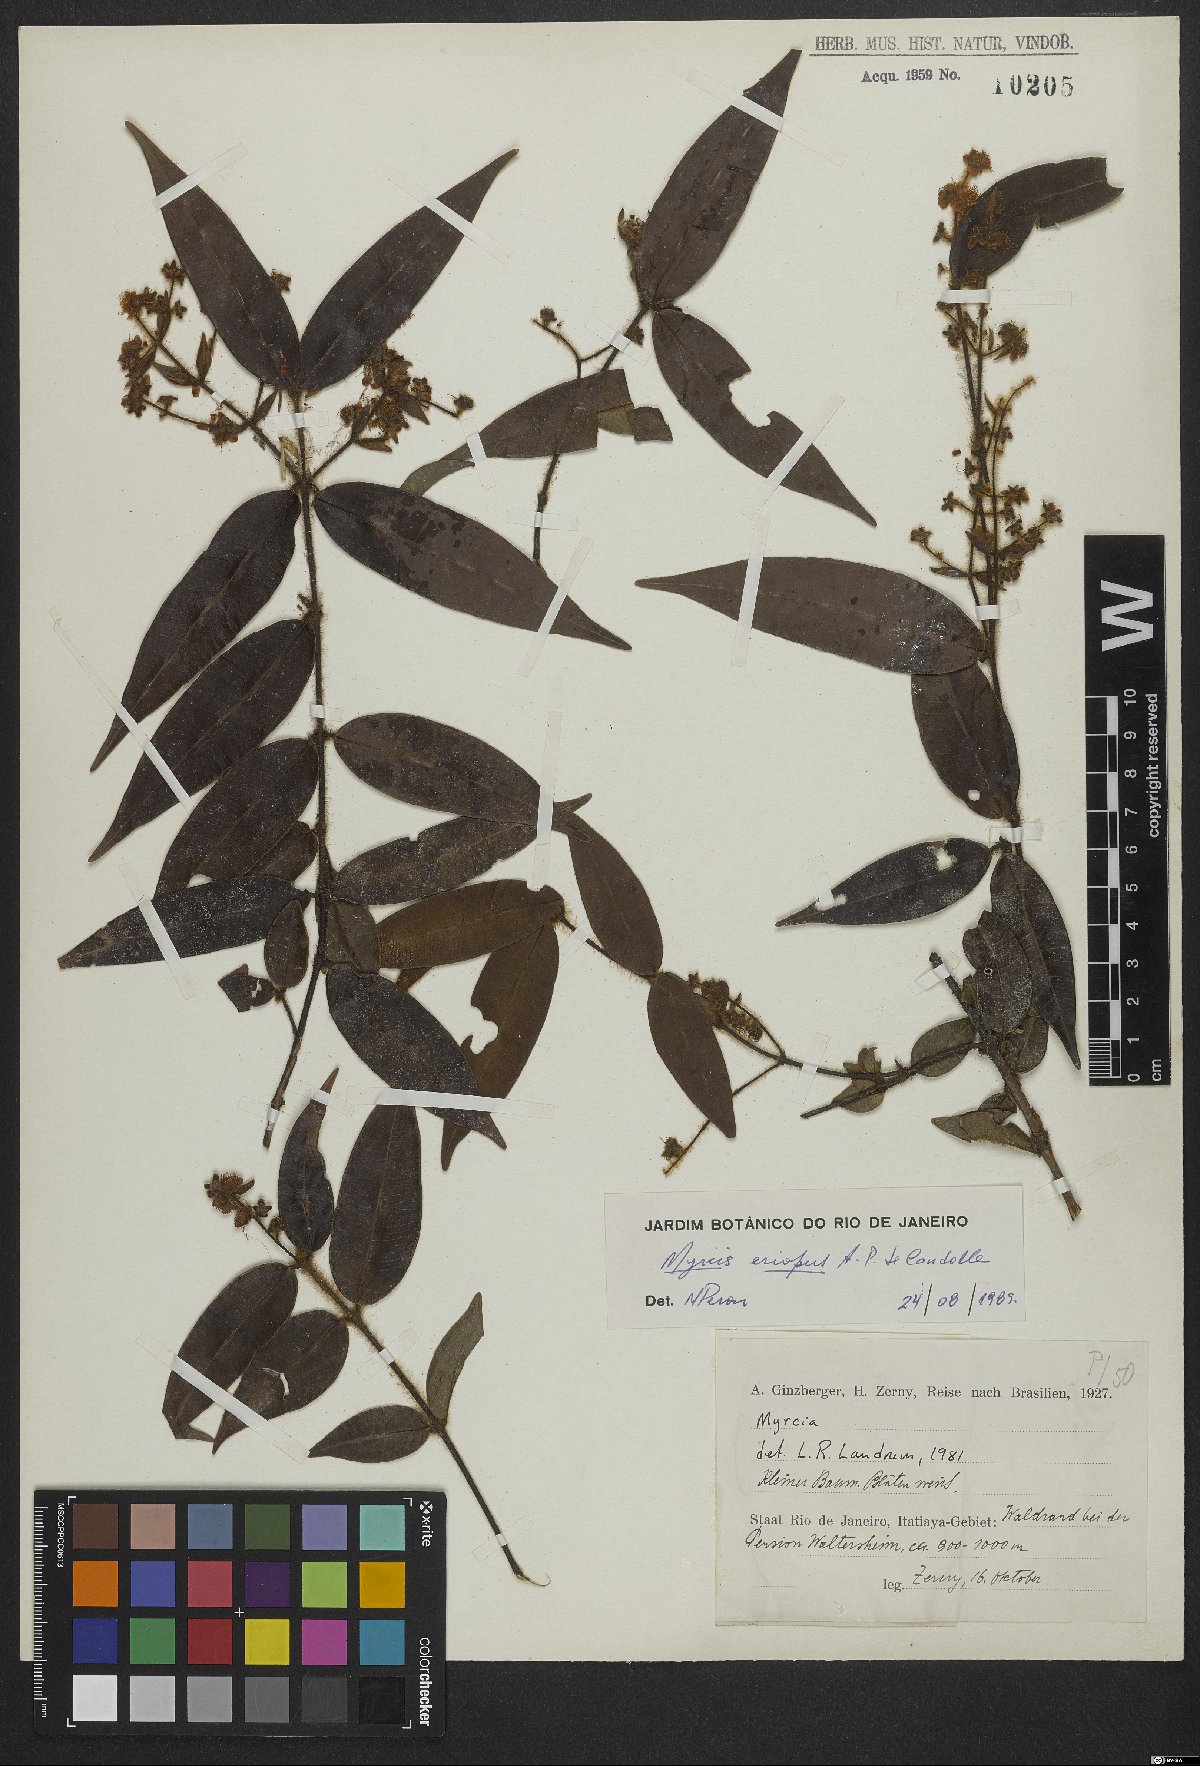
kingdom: Plantae
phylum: Tracheophyta
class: Magnoliopsida
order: Myrtales
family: Myrtaceae
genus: Myrcia
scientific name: Myrcia eriopus
